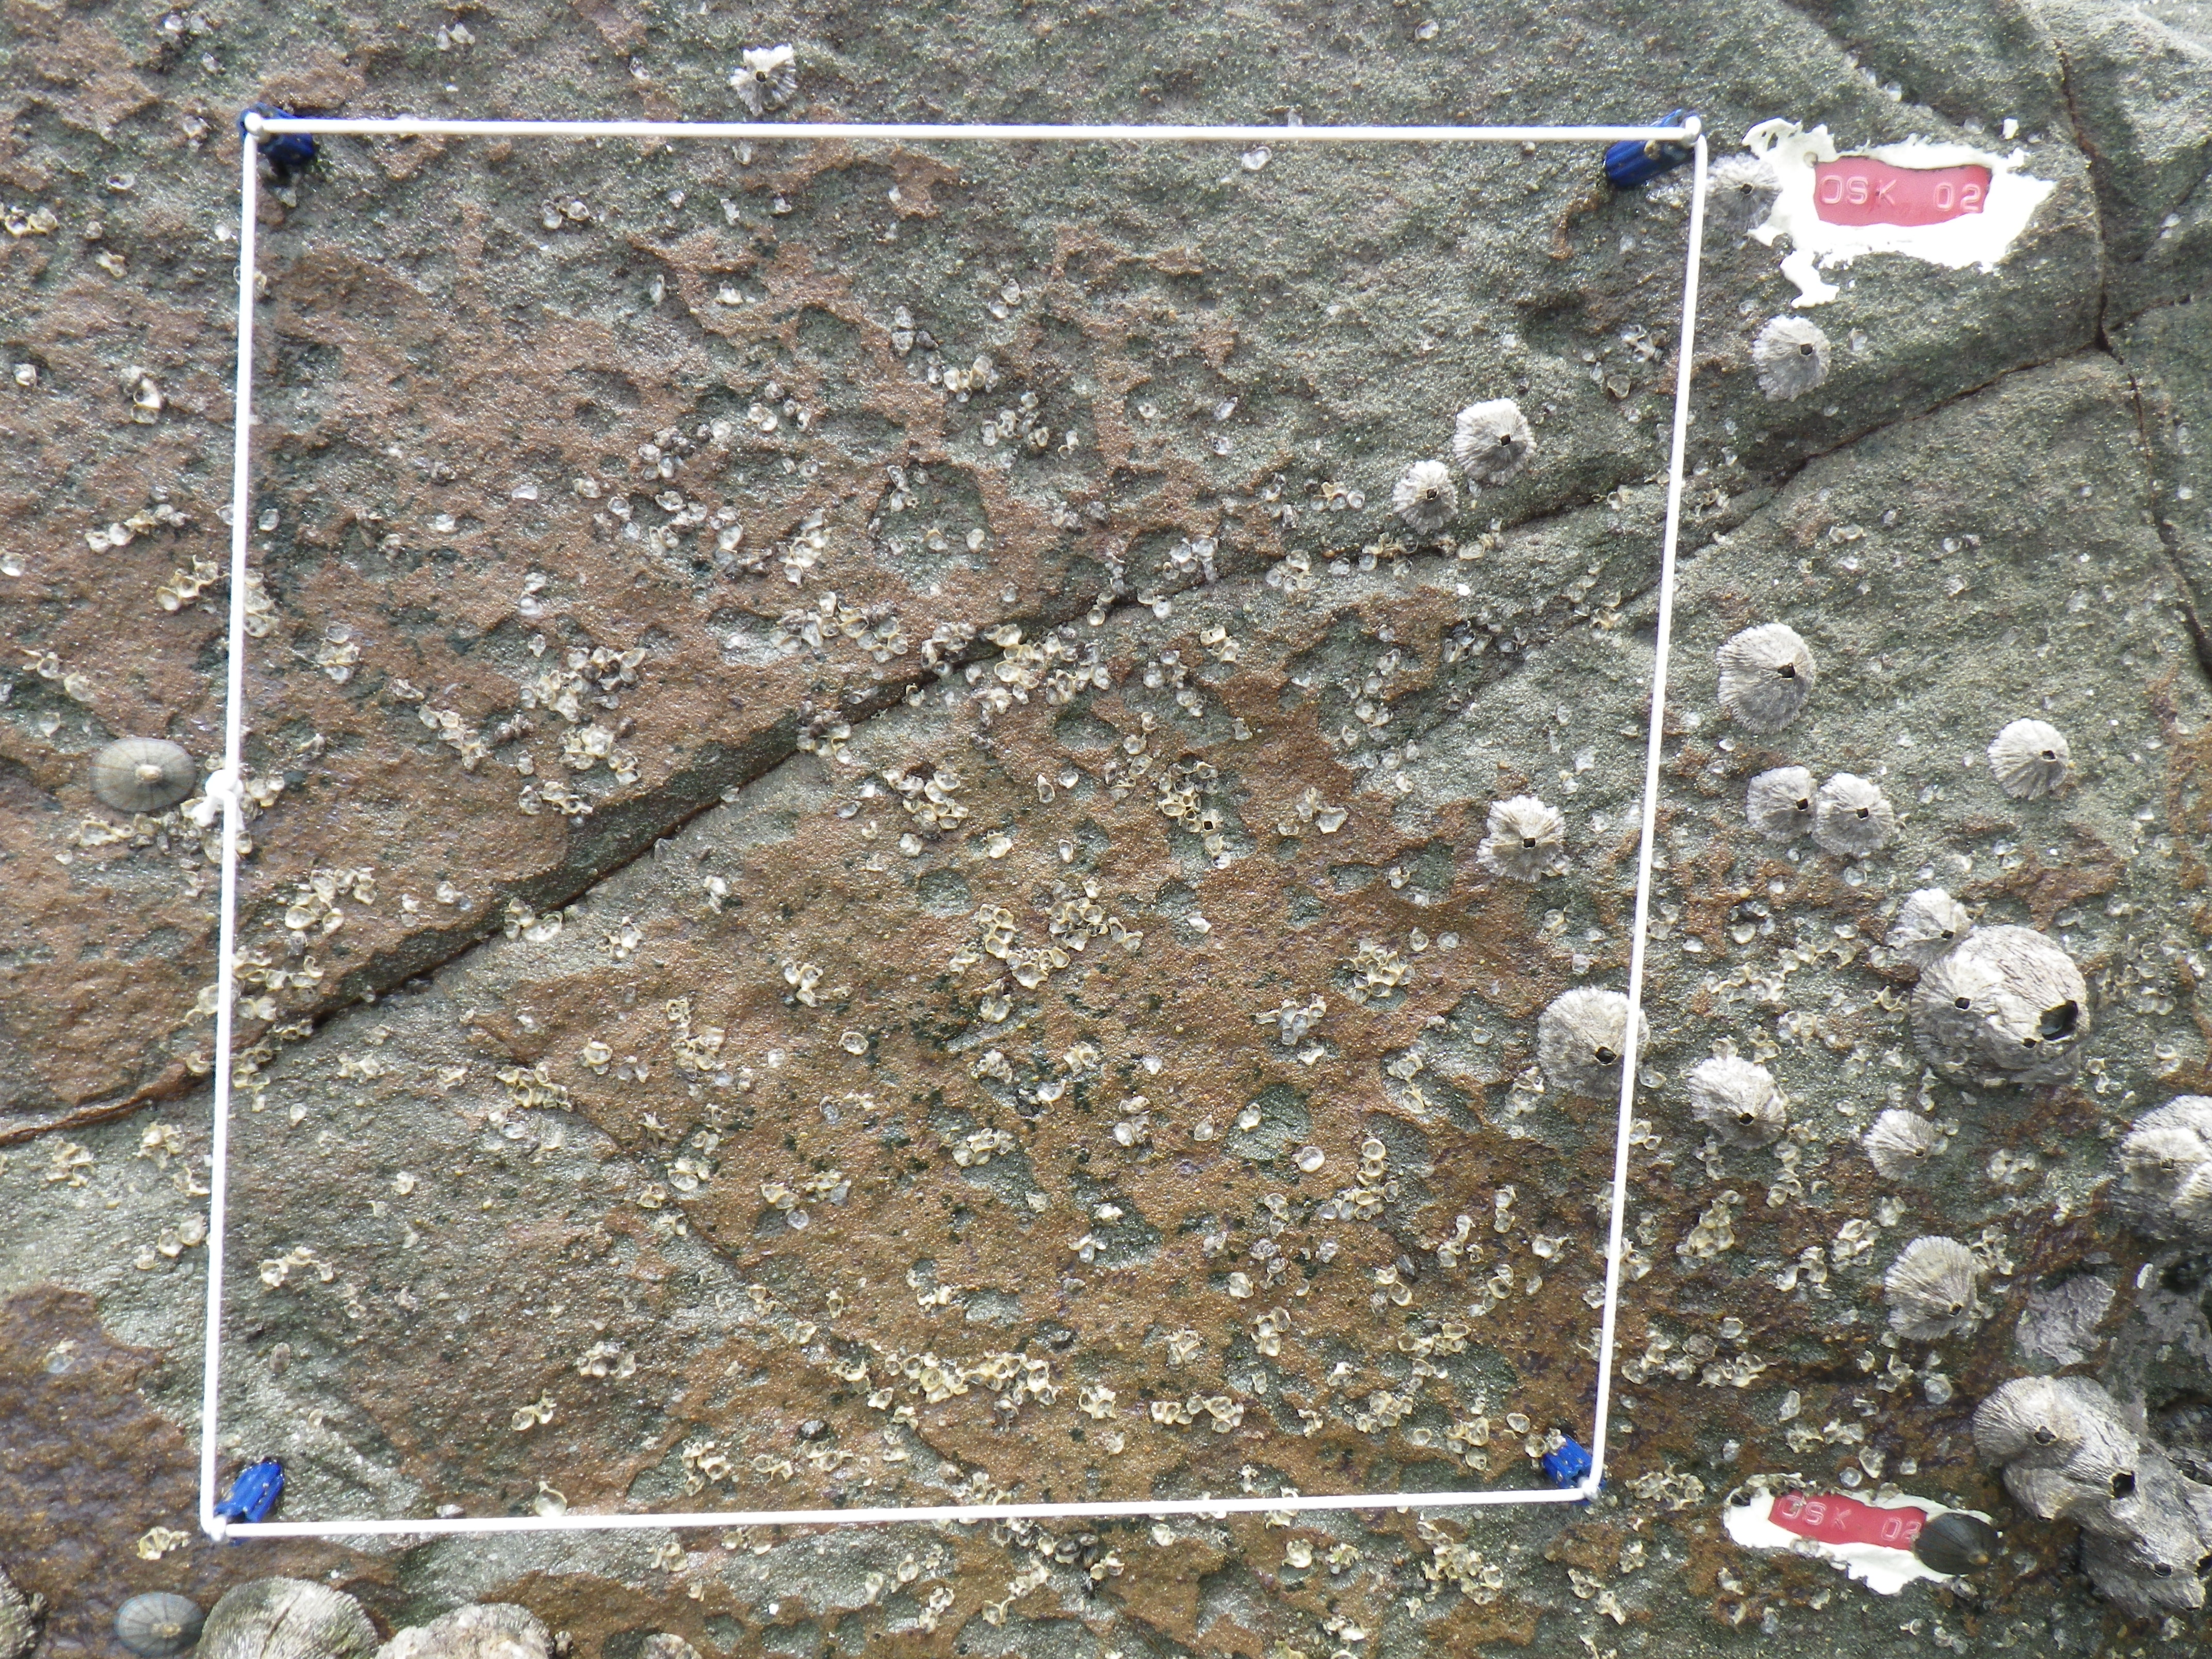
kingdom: Animalia
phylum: Arthropoda
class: Maxillopoda
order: Sessilia
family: Chthamalidae
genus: Chthamalus
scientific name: Chthamalus challengeri
